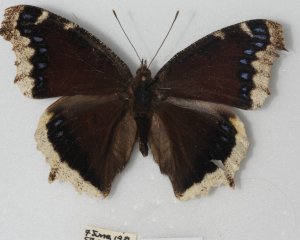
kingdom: Animalia
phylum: Arthropoda
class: Insecta
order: Lepidoptera
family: Nymphalidae
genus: Nymphalis
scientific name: Nymphalis antiopa
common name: Mourning Cloak
